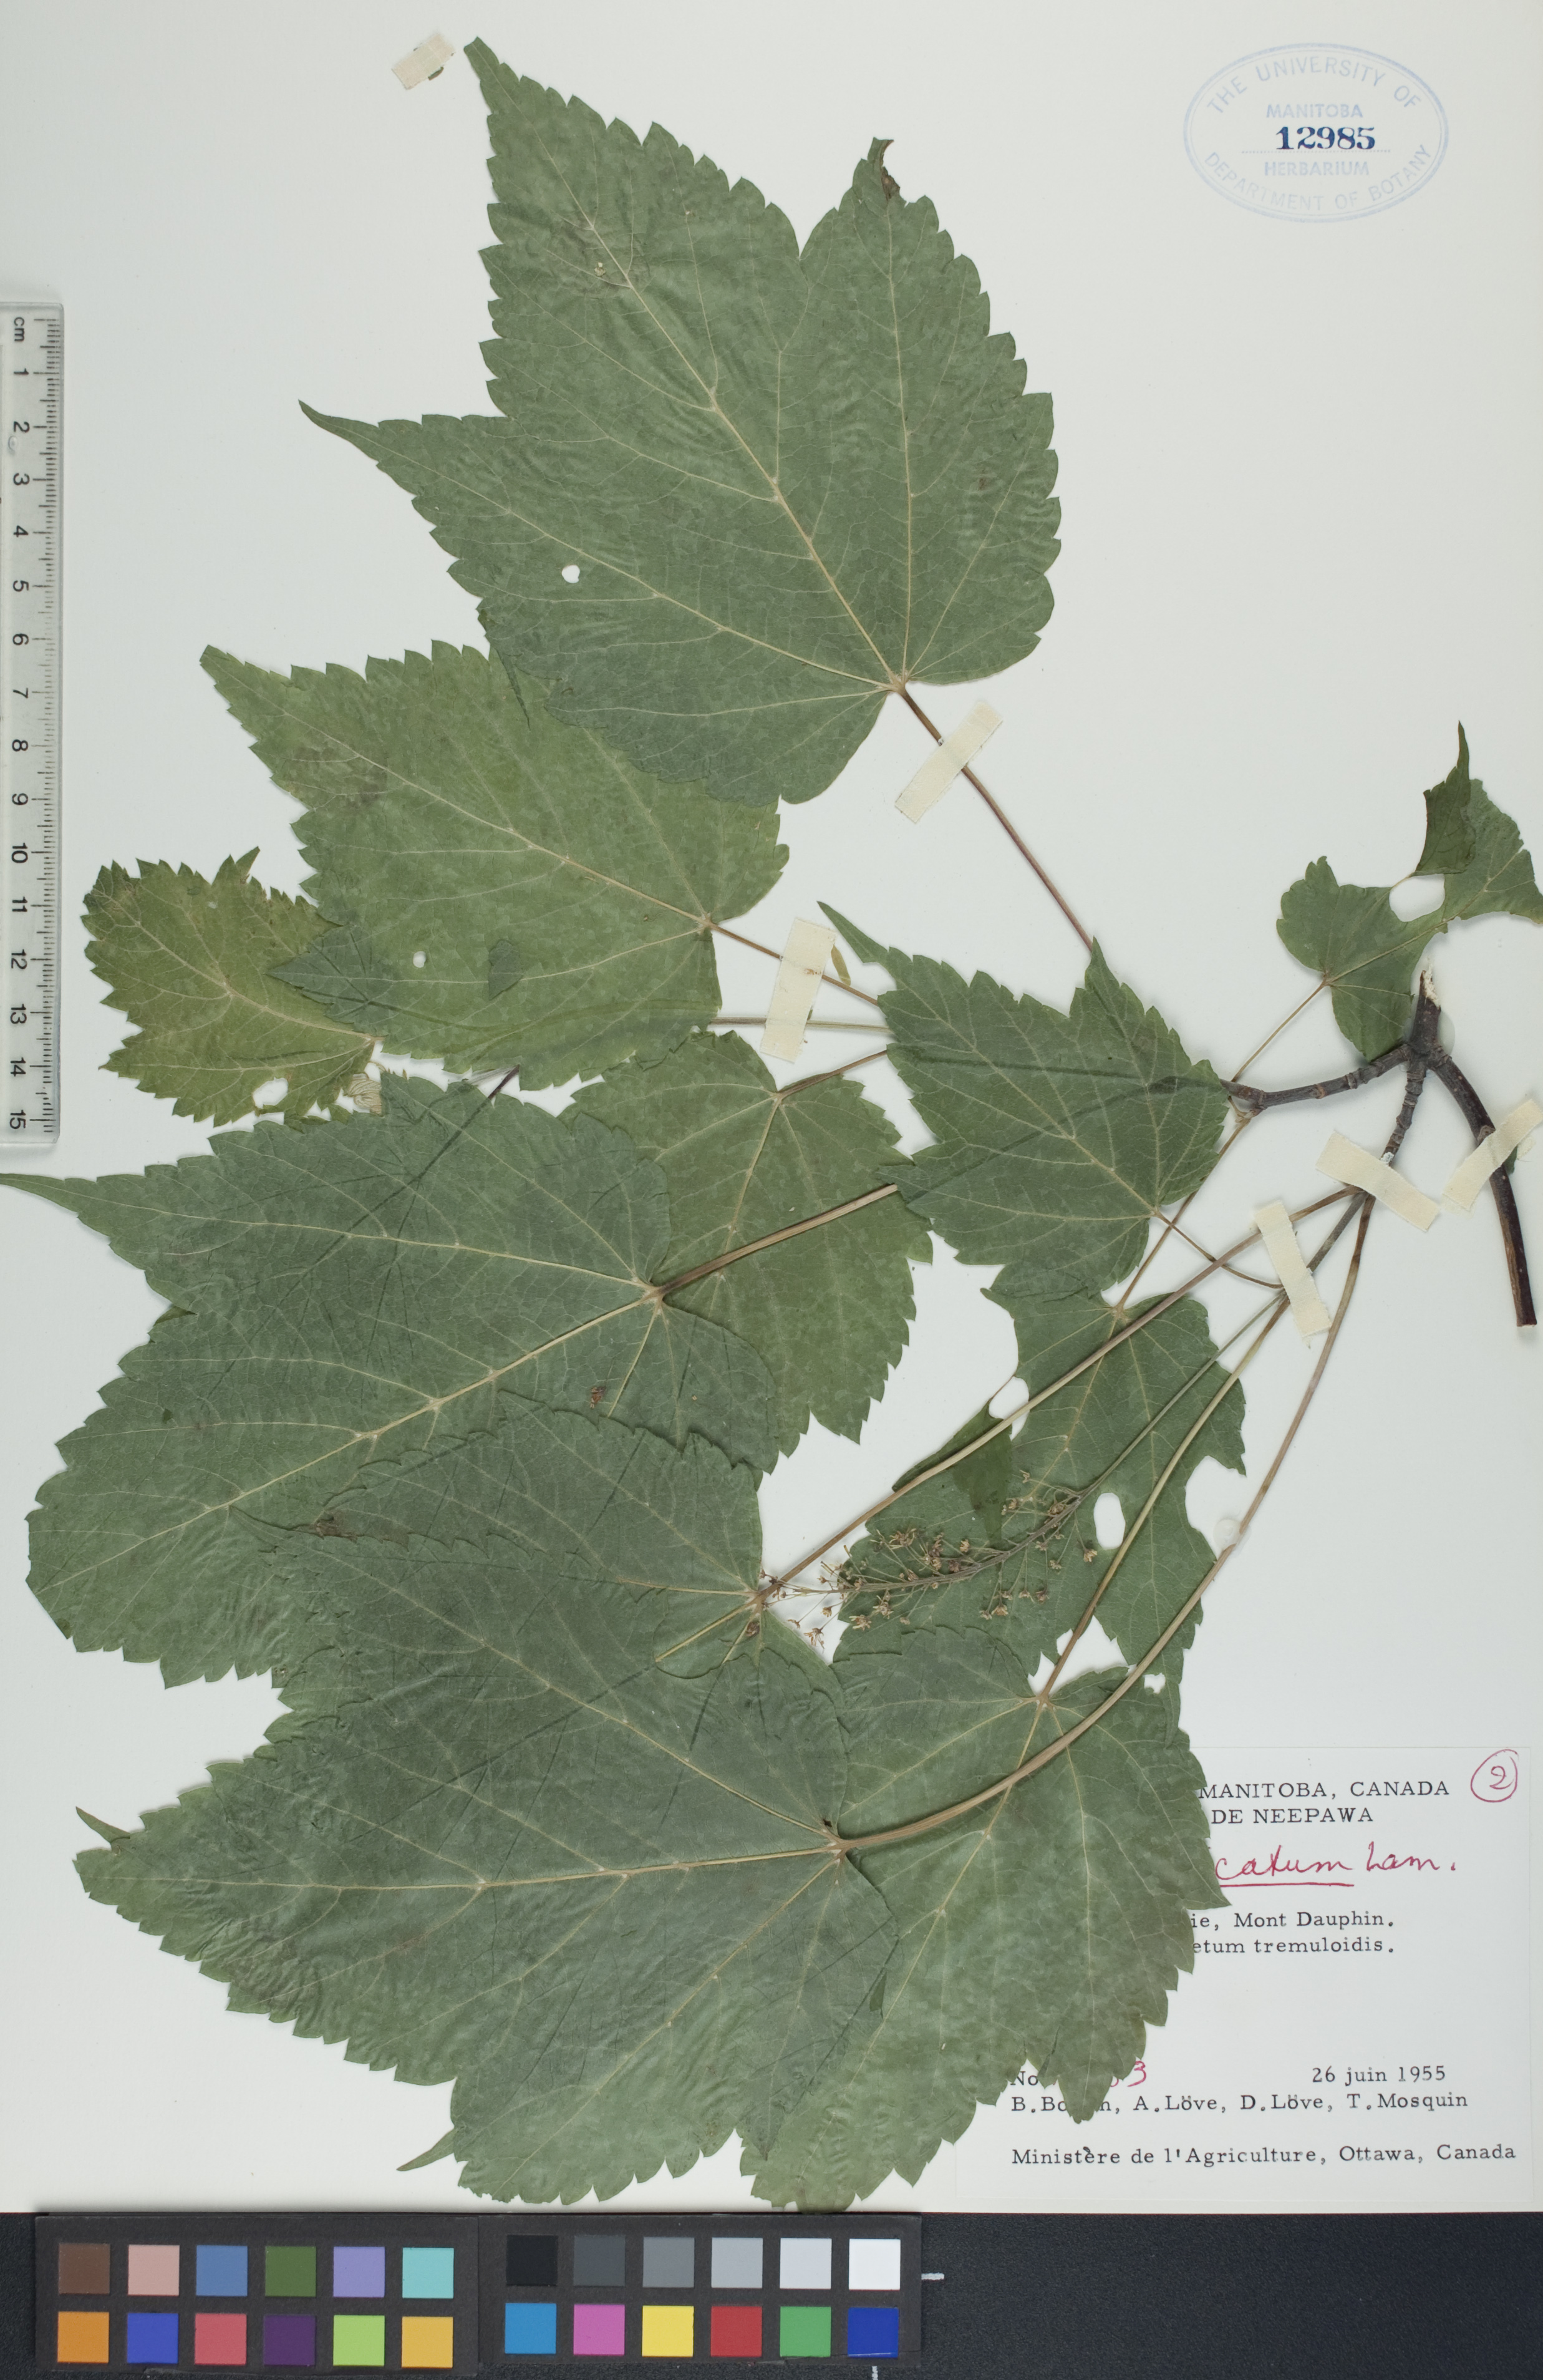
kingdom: Plantae
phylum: Tracheophyta
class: Magnoliopsida
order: Sapindales
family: Sapindaceae
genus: Acer
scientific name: Acer spicatum
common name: Mountain maple
